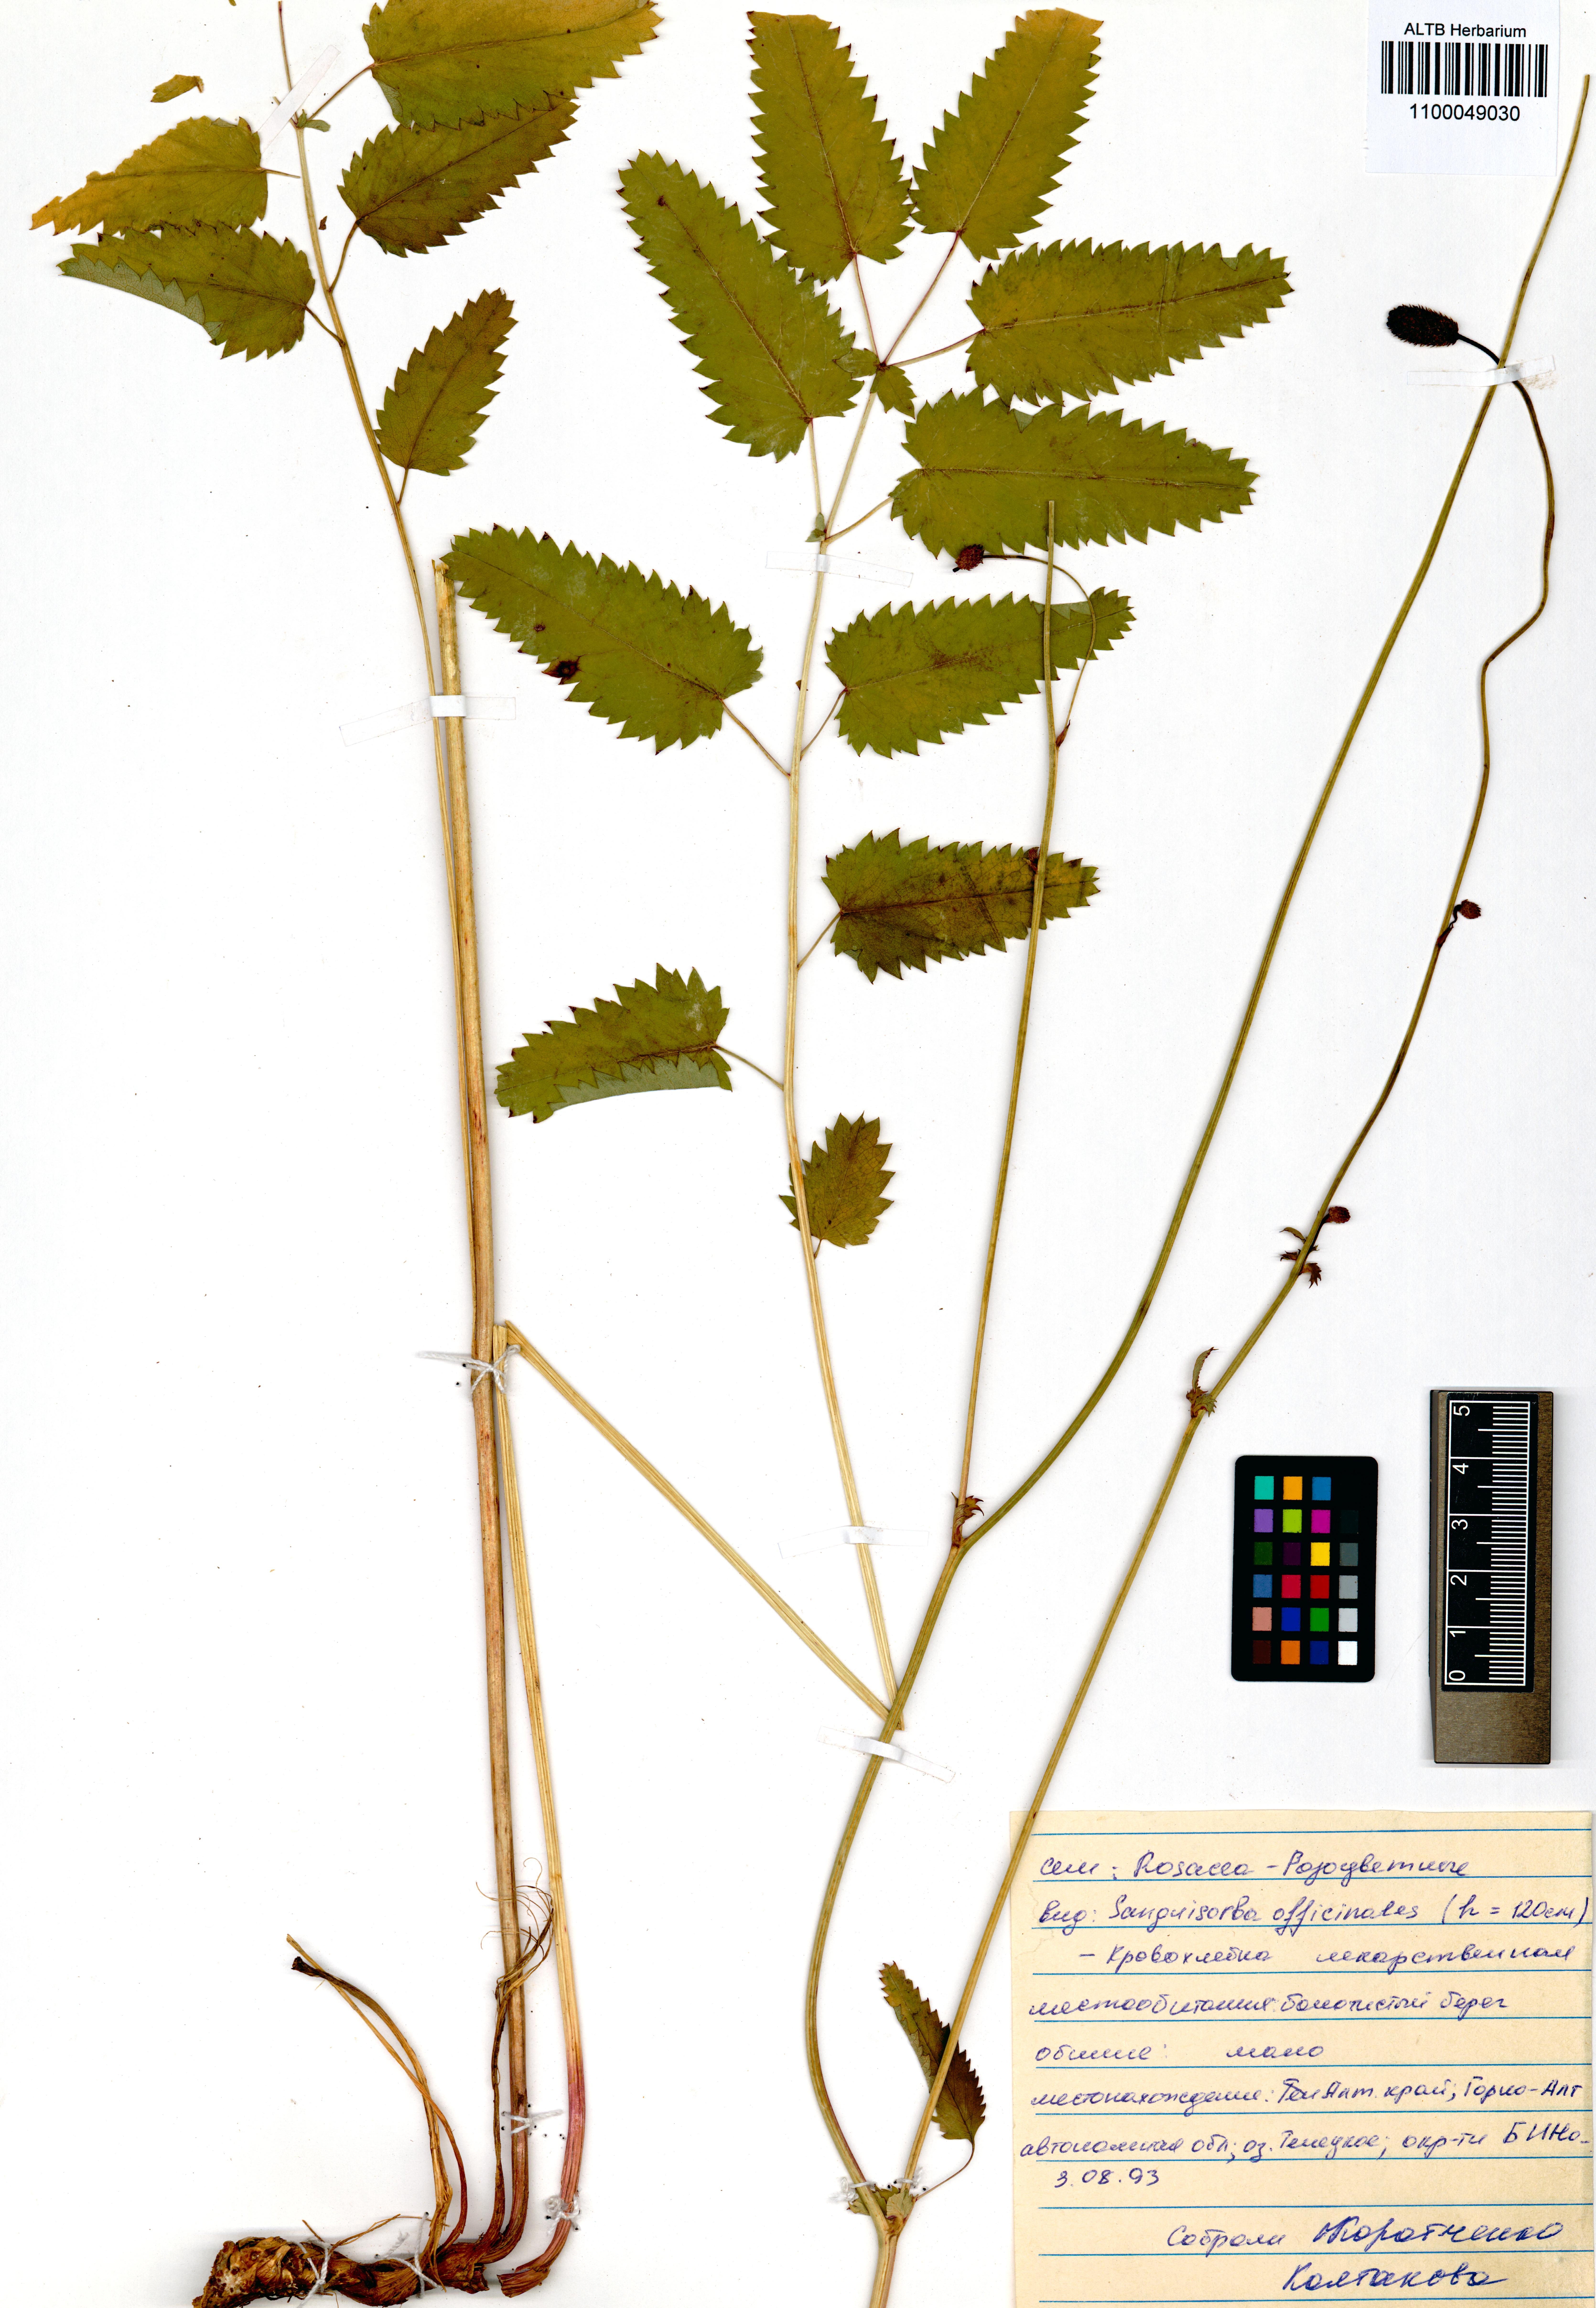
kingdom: Plantae
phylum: Tracheophyta
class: Magnoliopsida
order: Rosales
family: Rosaceae
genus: Sanguisorba
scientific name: Sanguisorba officinalis
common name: Great burnet
